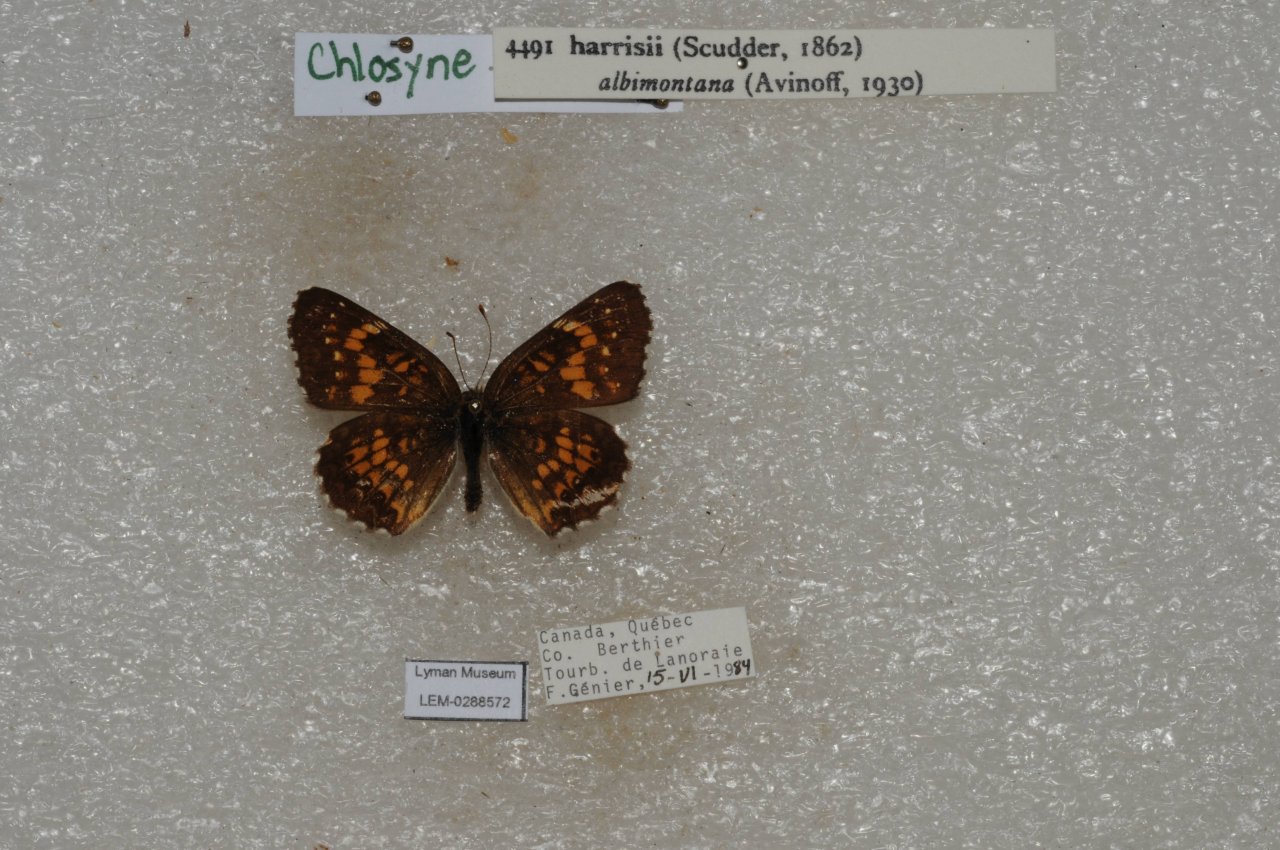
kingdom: Animalia
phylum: Arthropoda
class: Insecta
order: Lepidoptera
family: Nymphalidae
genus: Chlosyne
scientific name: Chlosyne harrisii
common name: Harris's Checkerspot
